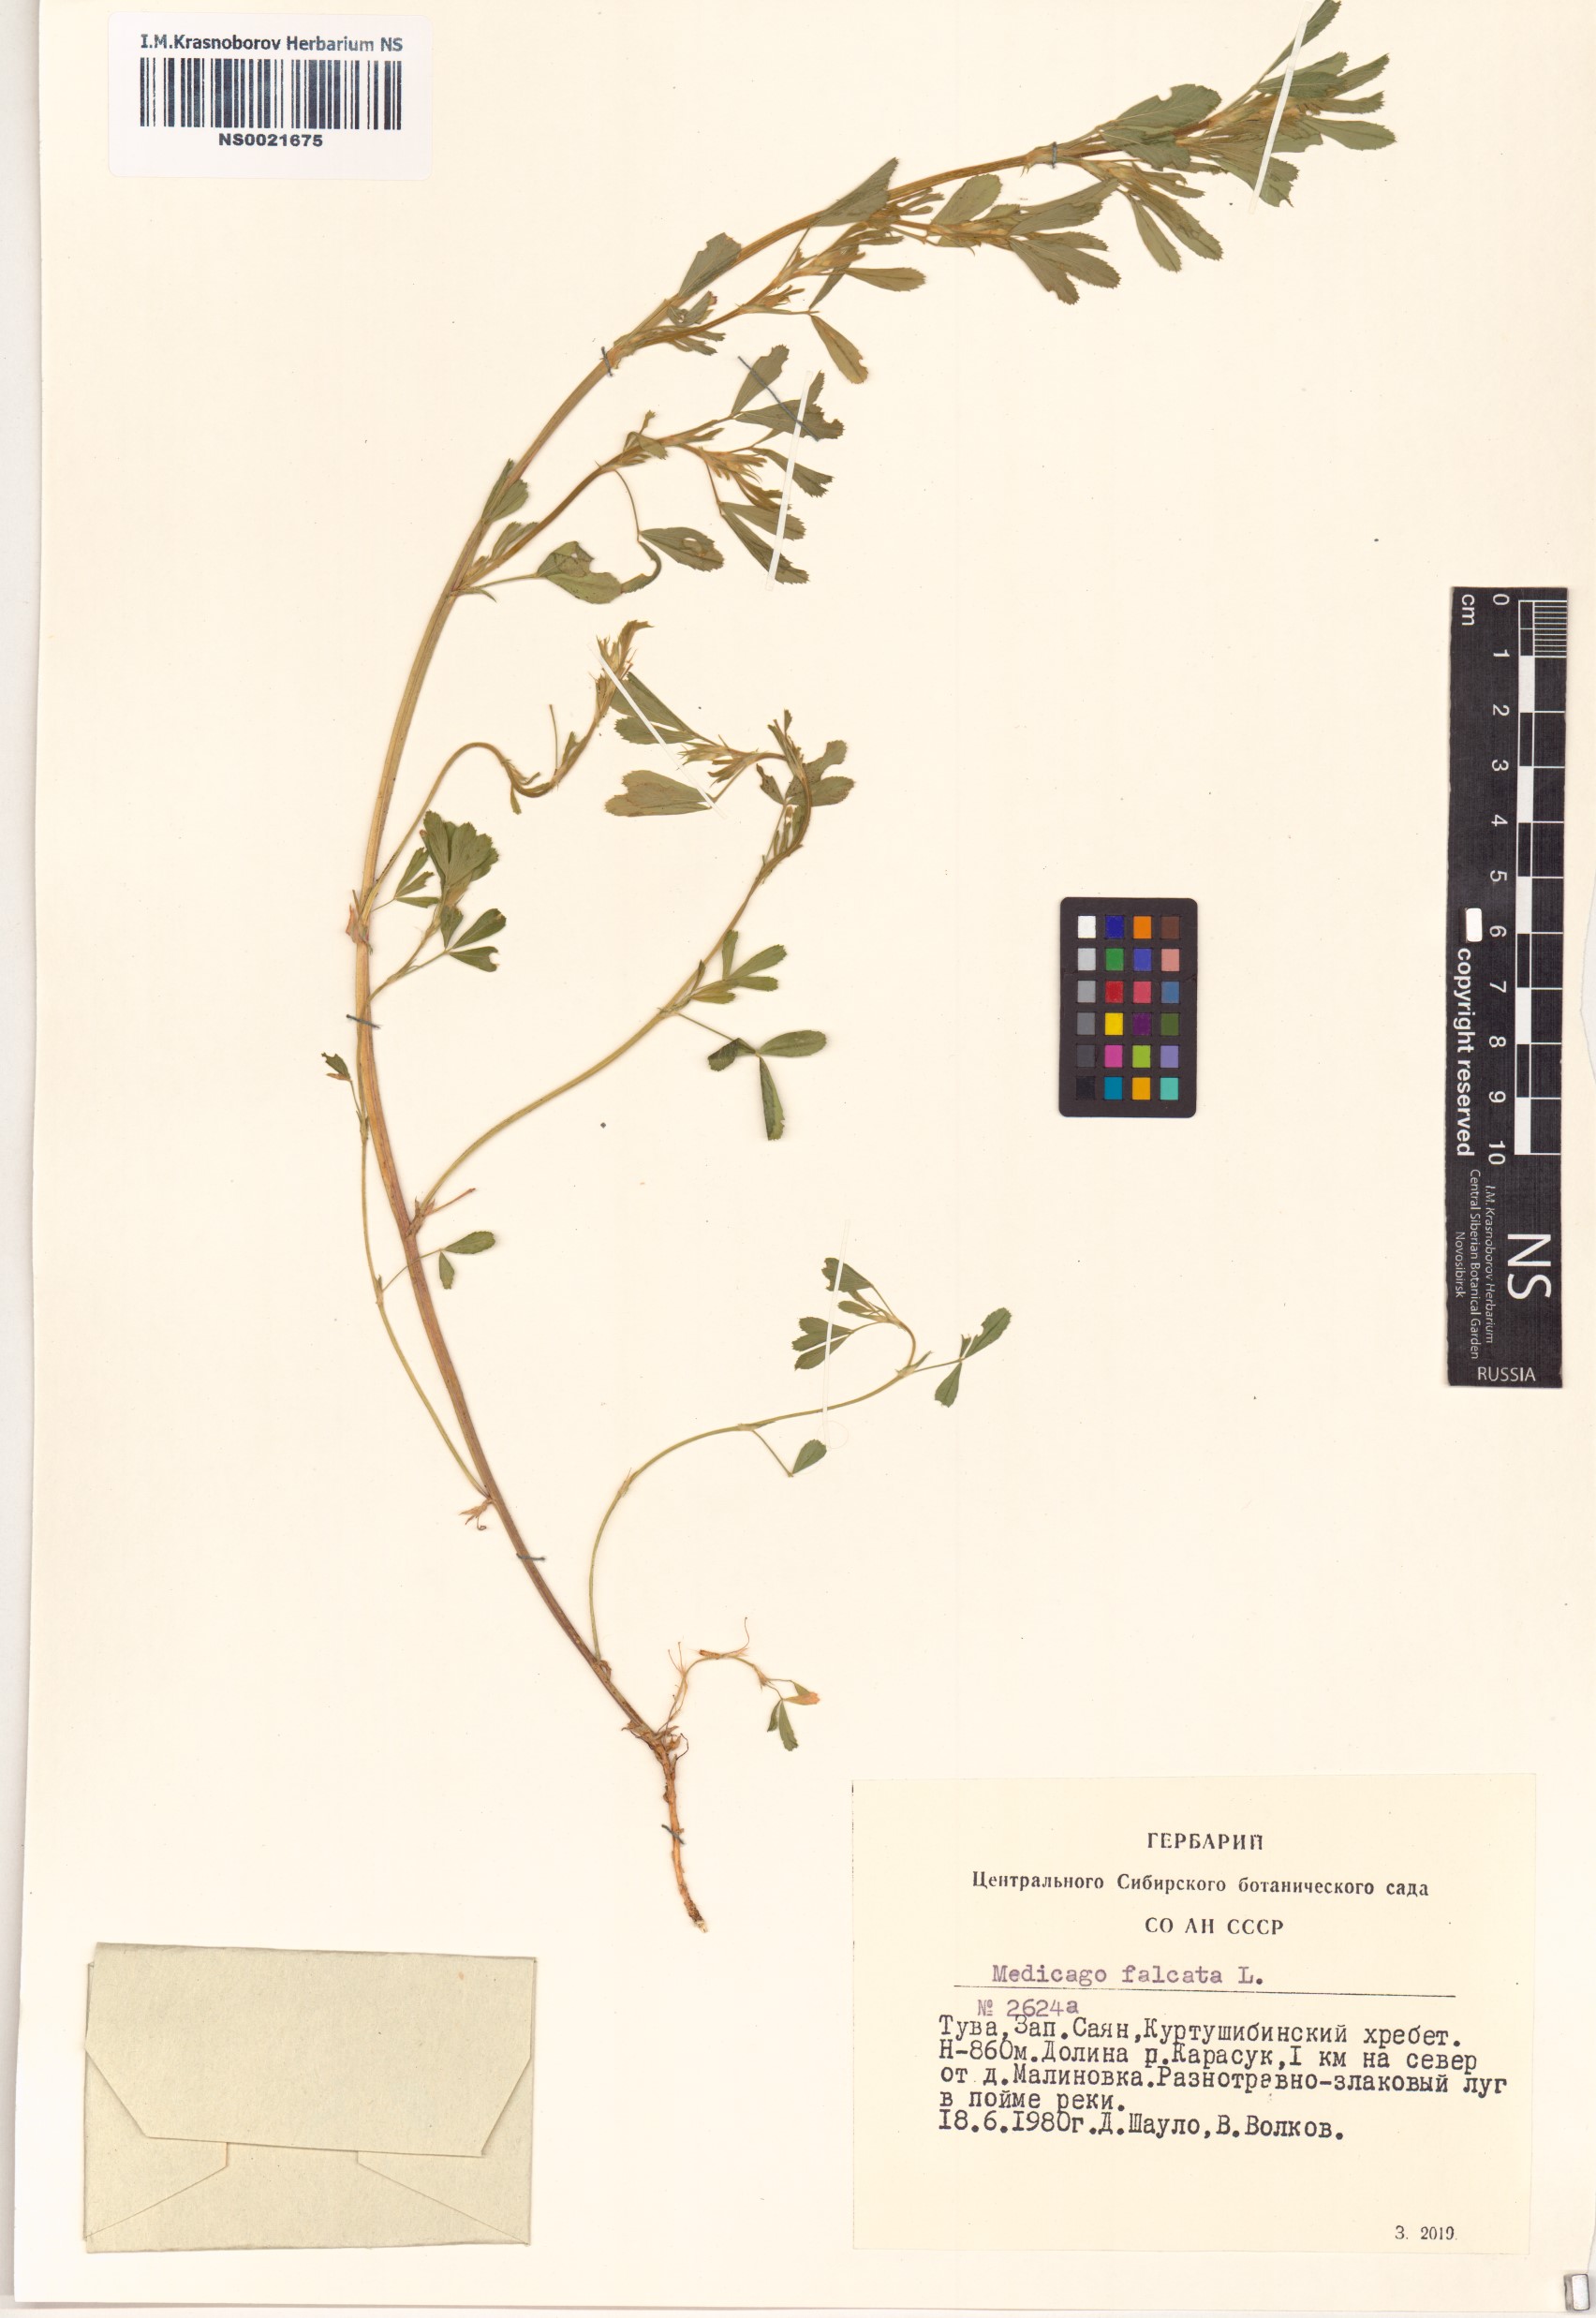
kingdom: Plantae
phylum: Tracheophyta
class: Magnoliopsida
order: Fabales
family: Fabaceae
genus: Medicago
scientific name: Medicago falcata
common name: Sickle medick
